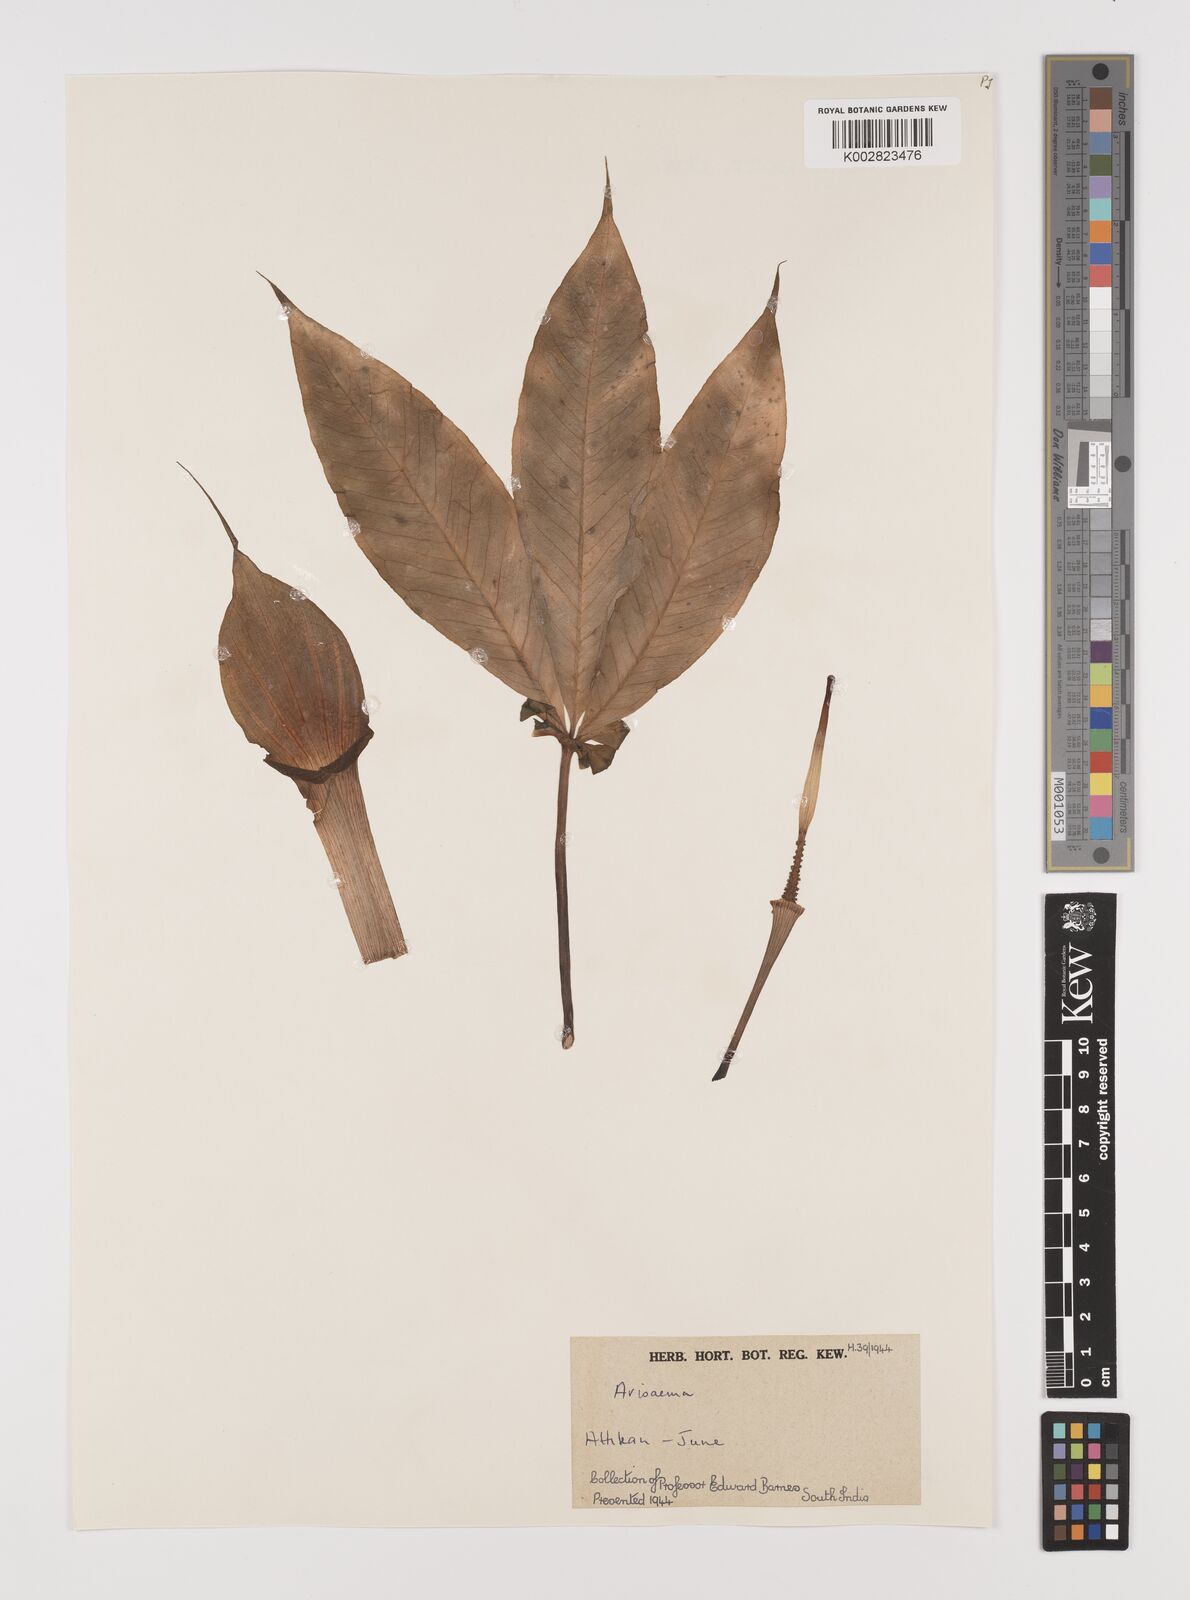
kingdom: Plantae
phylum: Tracheophyta
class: Liliopsida
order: Alismatales
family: Araceae
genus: Arisaema
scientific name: Arisaema
